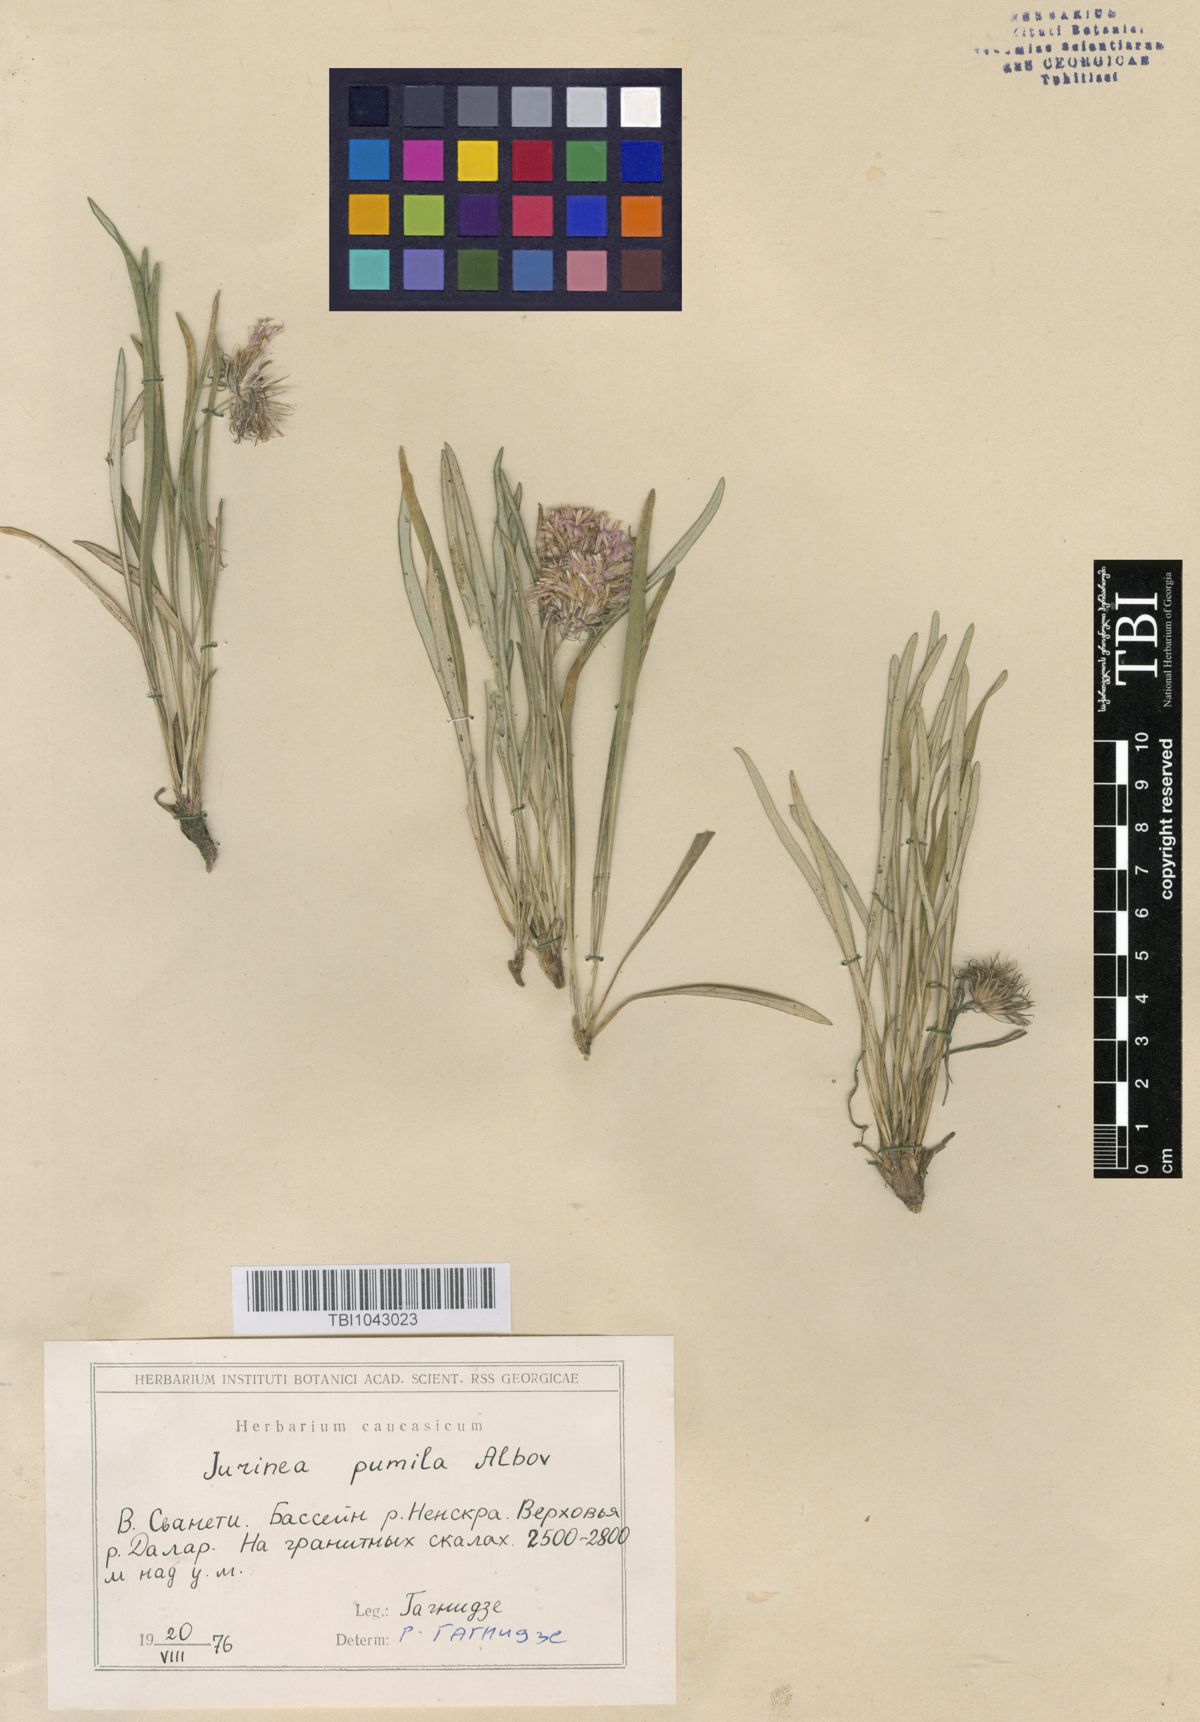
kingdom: Plantae
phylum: Tracheophyta
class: Magnoliopsida
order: Asterales
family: Asteraceae
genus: Jurinea
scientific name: Jurinea pumila
